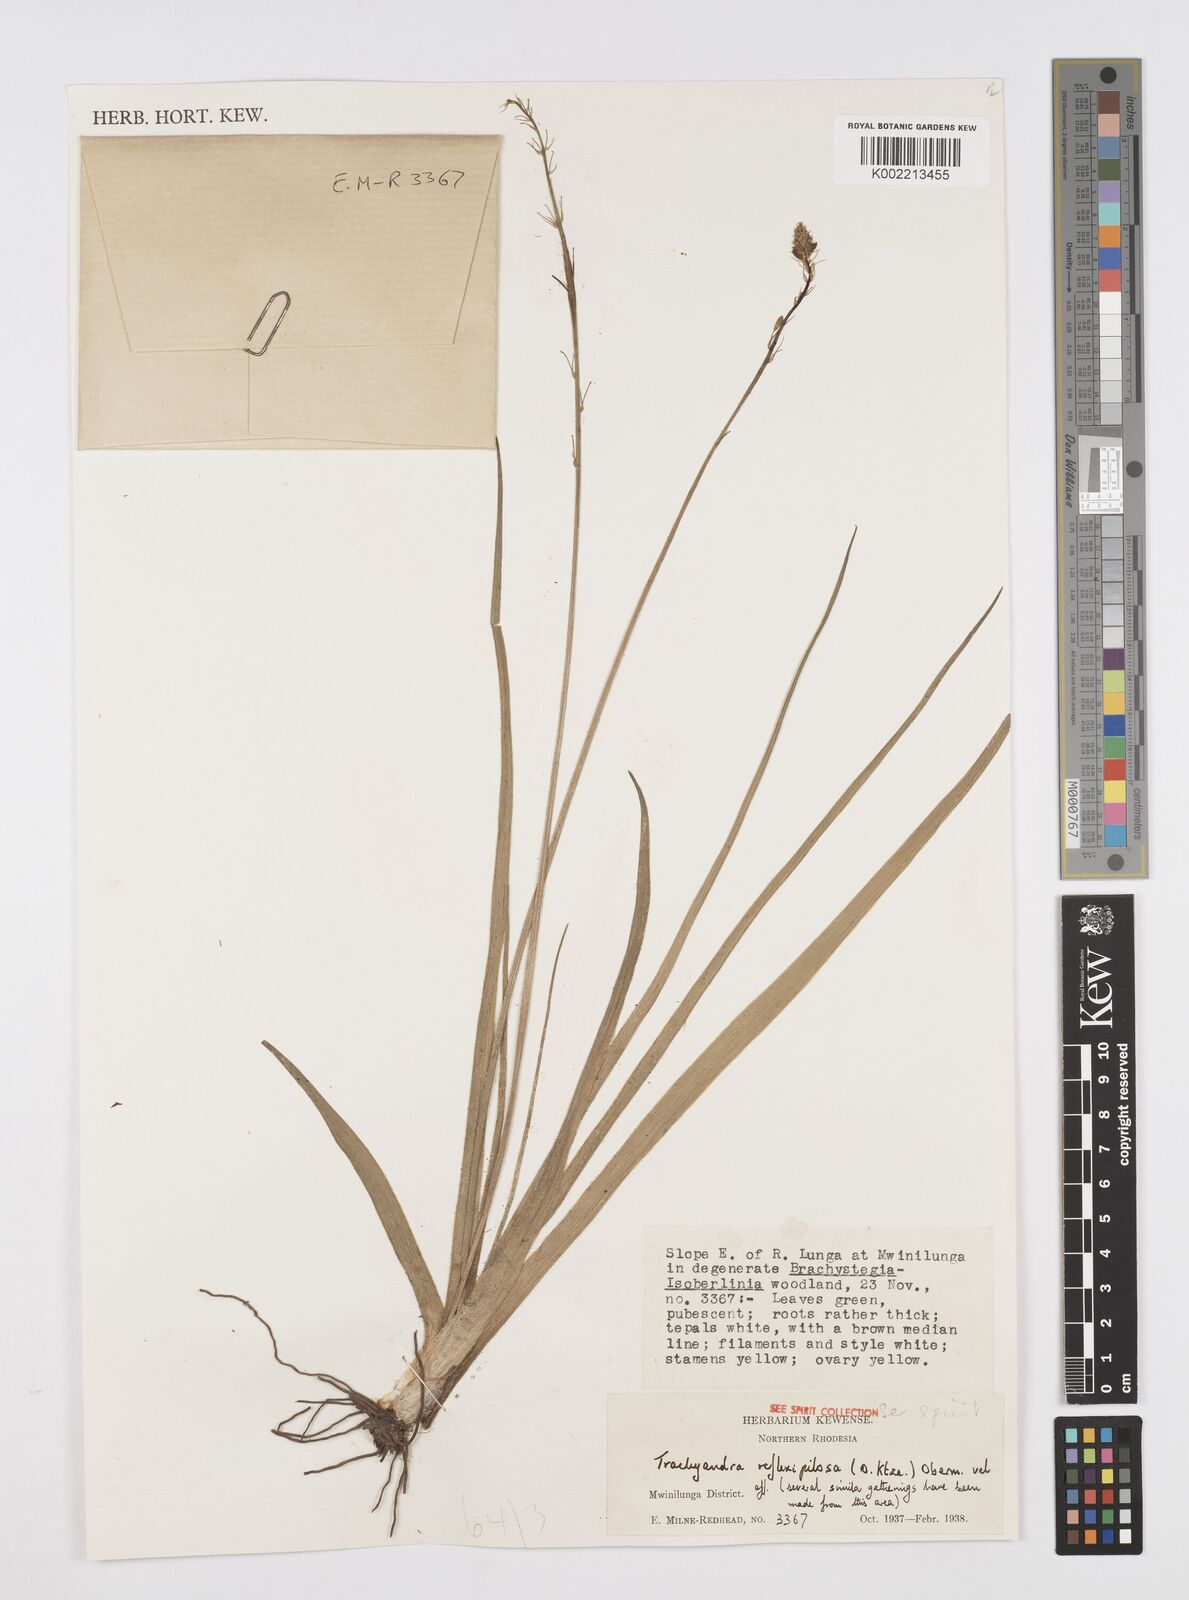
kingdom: Plantae
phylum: Tracheophyta
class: Liliopsida
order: Asparagales
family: Asphodelaceae
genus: Trachyandra
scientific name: Trachyandra saltii
